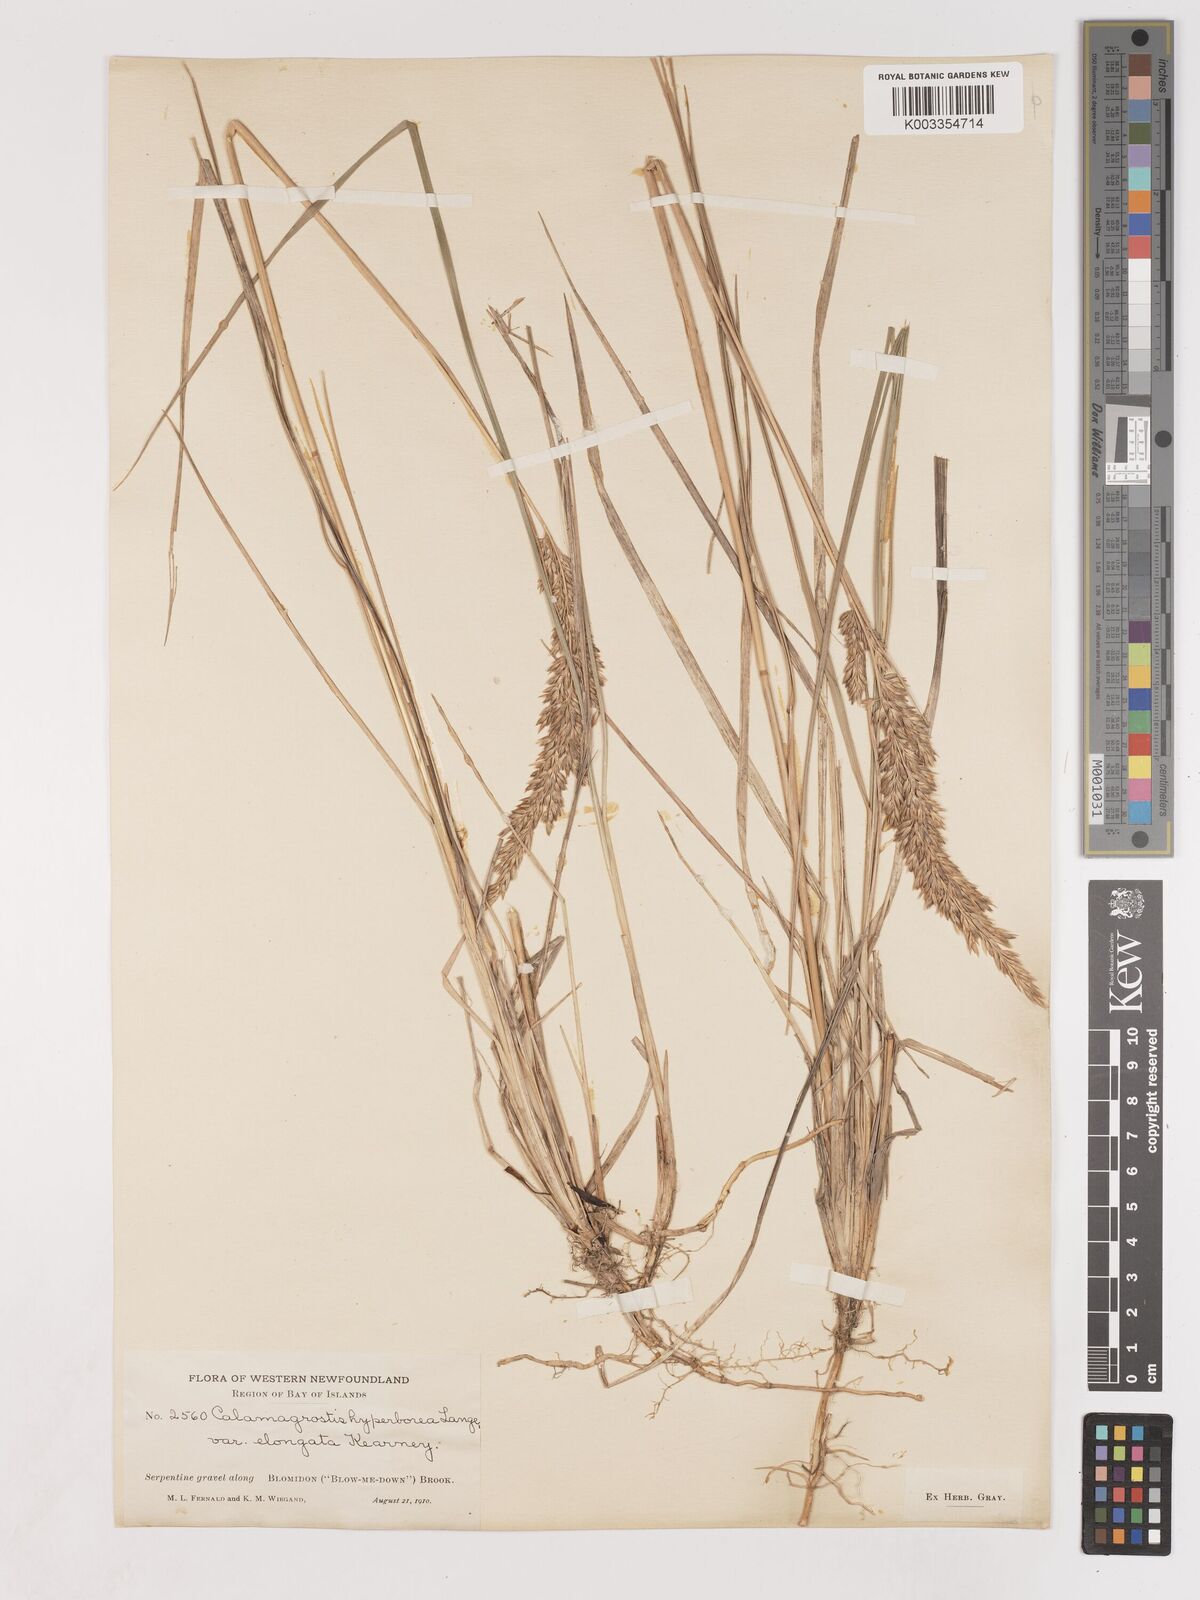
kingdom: Plantae
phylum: Tracheophyta
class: Liliopsida
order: Poales
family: Poaceae
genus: Cinnagrostis
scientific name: Cinnagrostis recta
